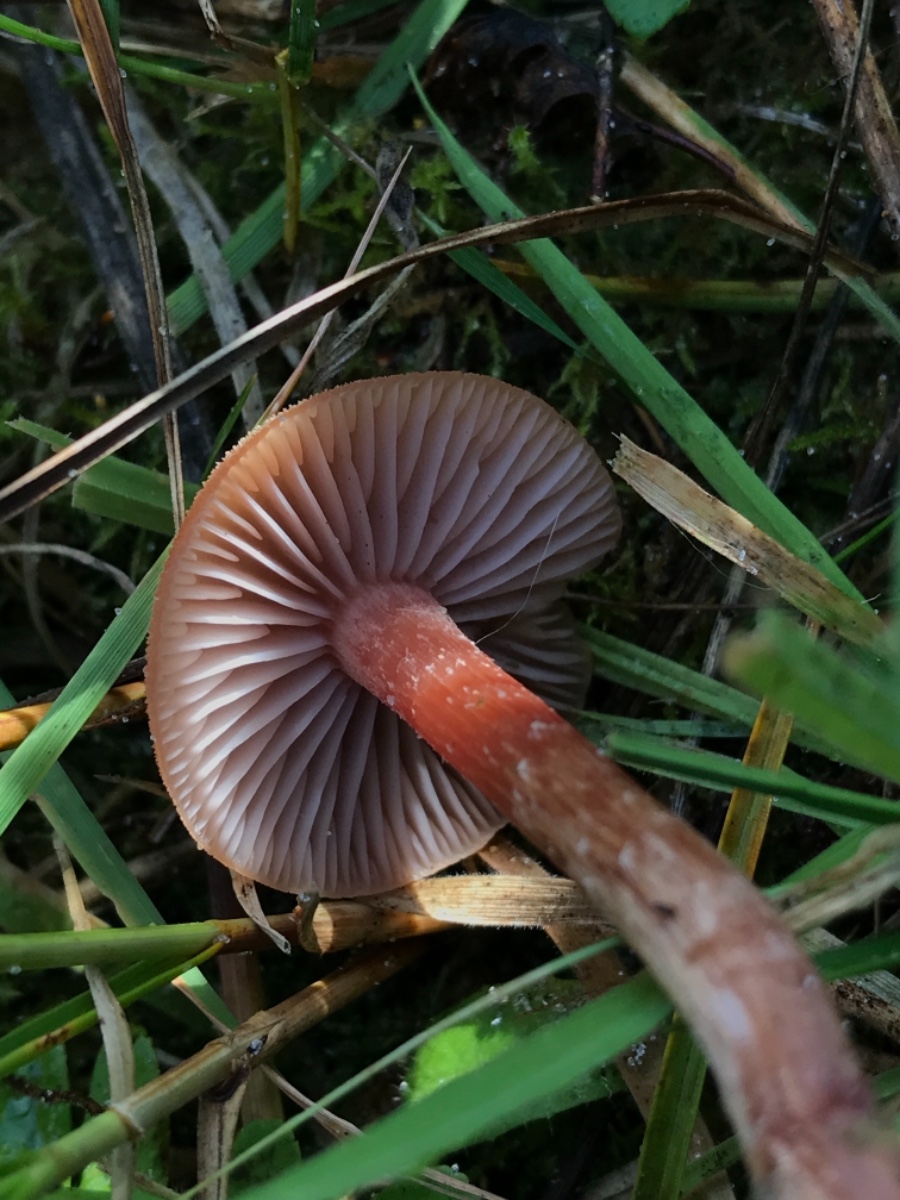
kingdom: Fungi
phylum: Basidiomycota
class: Agaricomycetes
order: Agaricales
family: Hydnangiaceae
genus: Laccaria
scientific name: Laccaria laccata
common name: rød ametysthat
